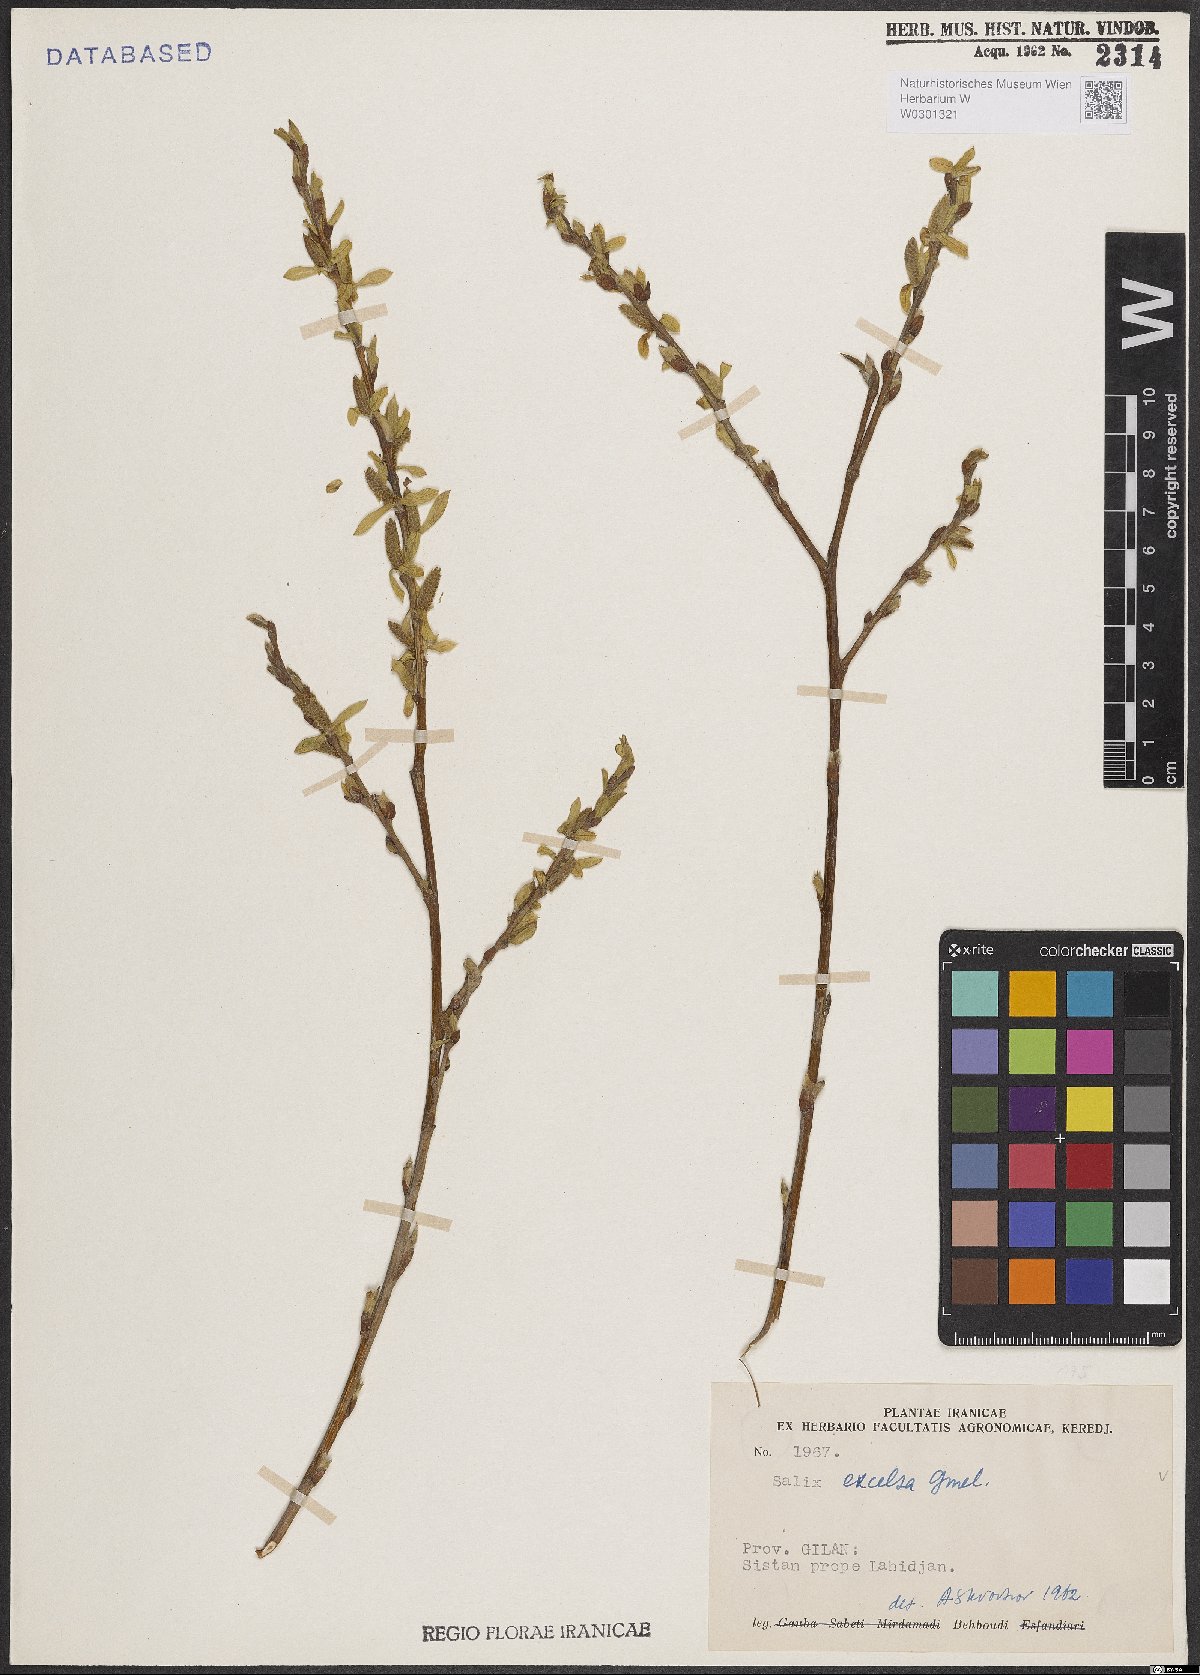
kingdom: Plantae
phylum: Tracheophyta
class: Magnoliopsida
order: Malpighiales
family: Salicaceae
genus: Salix
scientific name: Salix excelsa
